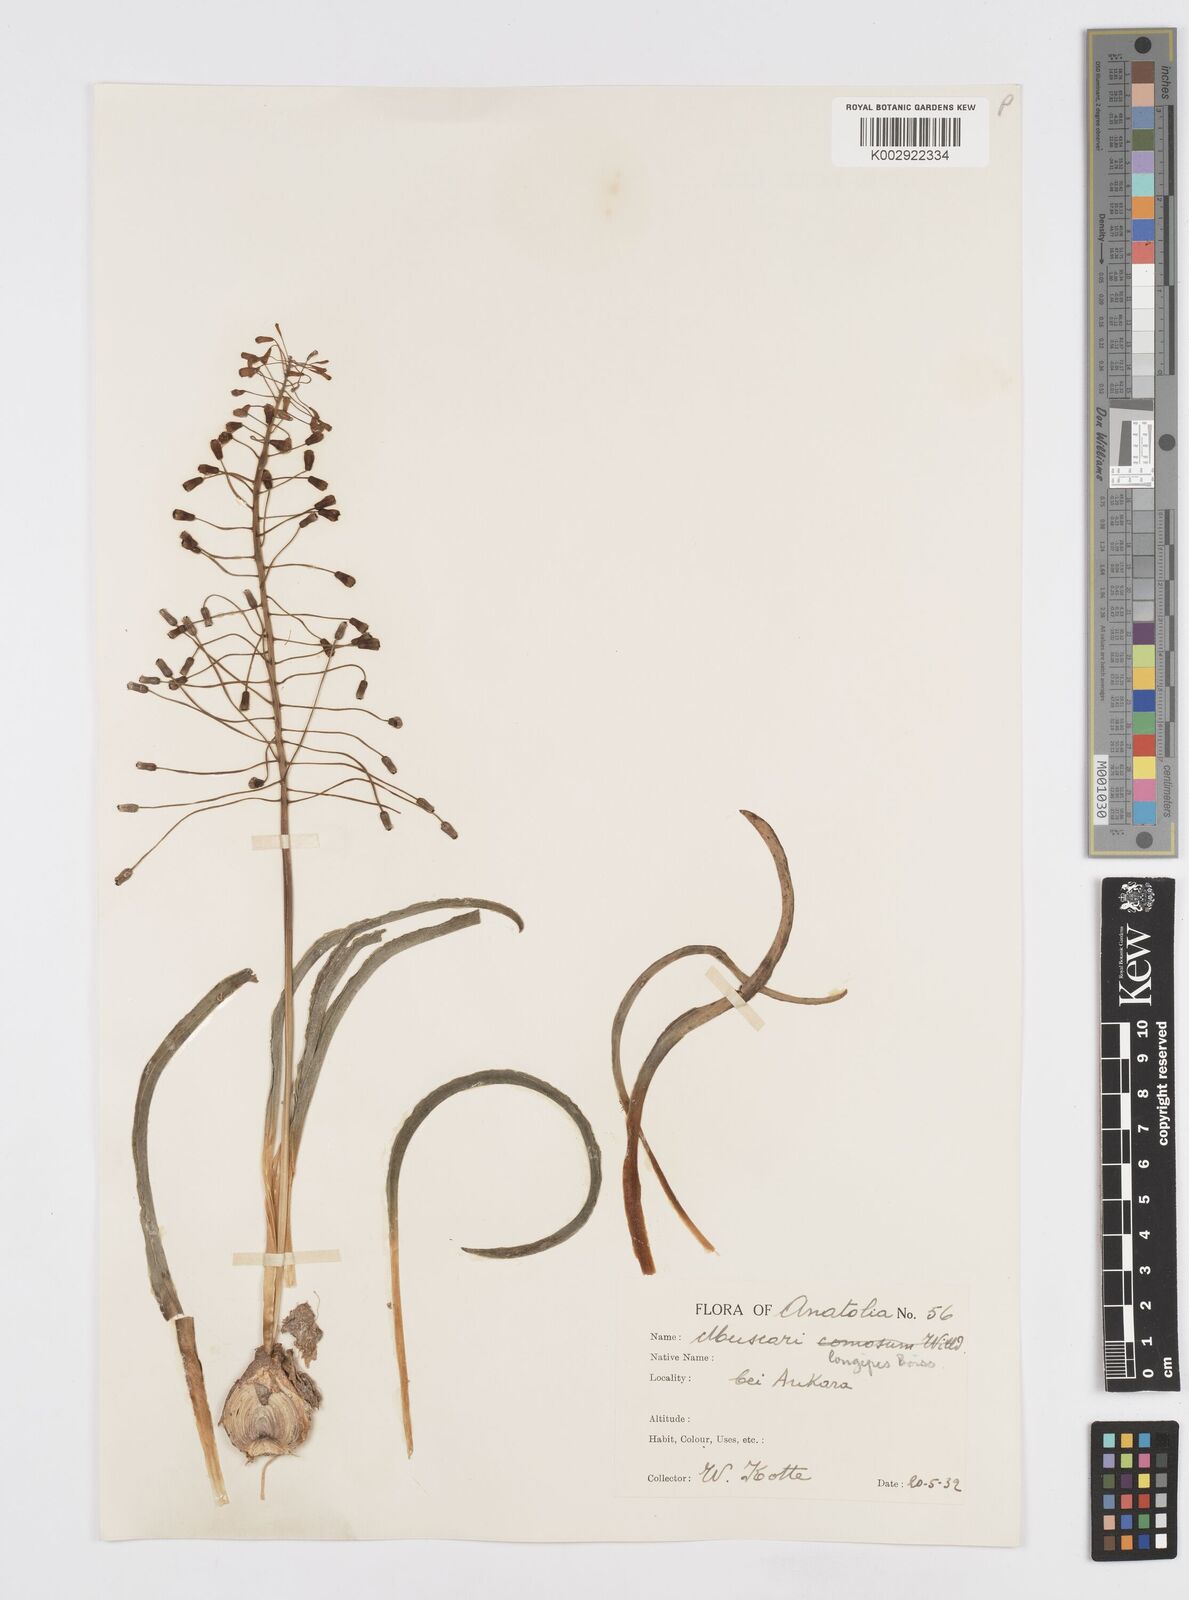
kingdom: Plantae
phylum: Tracheophyta
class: Liliopsida
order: Asparagales
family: Asparagaceae
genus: Muscari
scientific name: Muscari longipes
